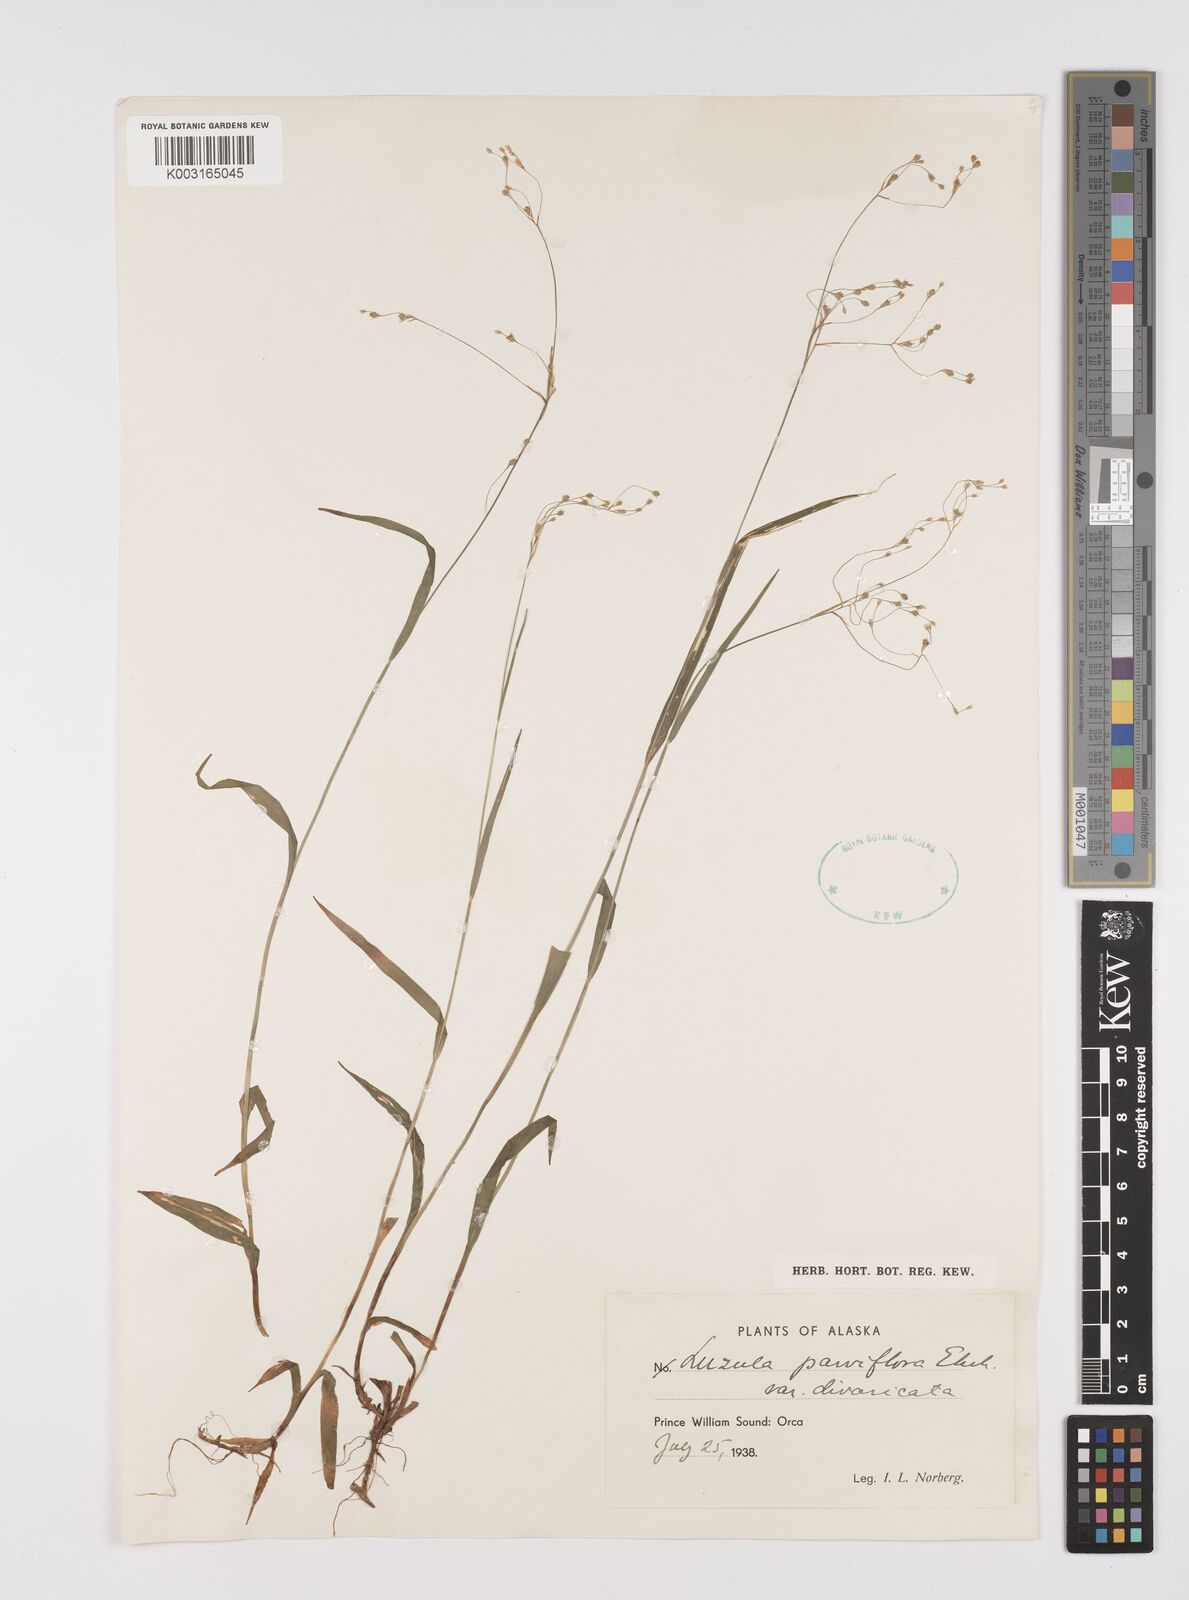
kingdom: Plantae
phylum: Tracheophyta
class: Liliopsida
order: Poales
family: Juncaceae
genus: Luzula
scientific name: Luzula divaricata
